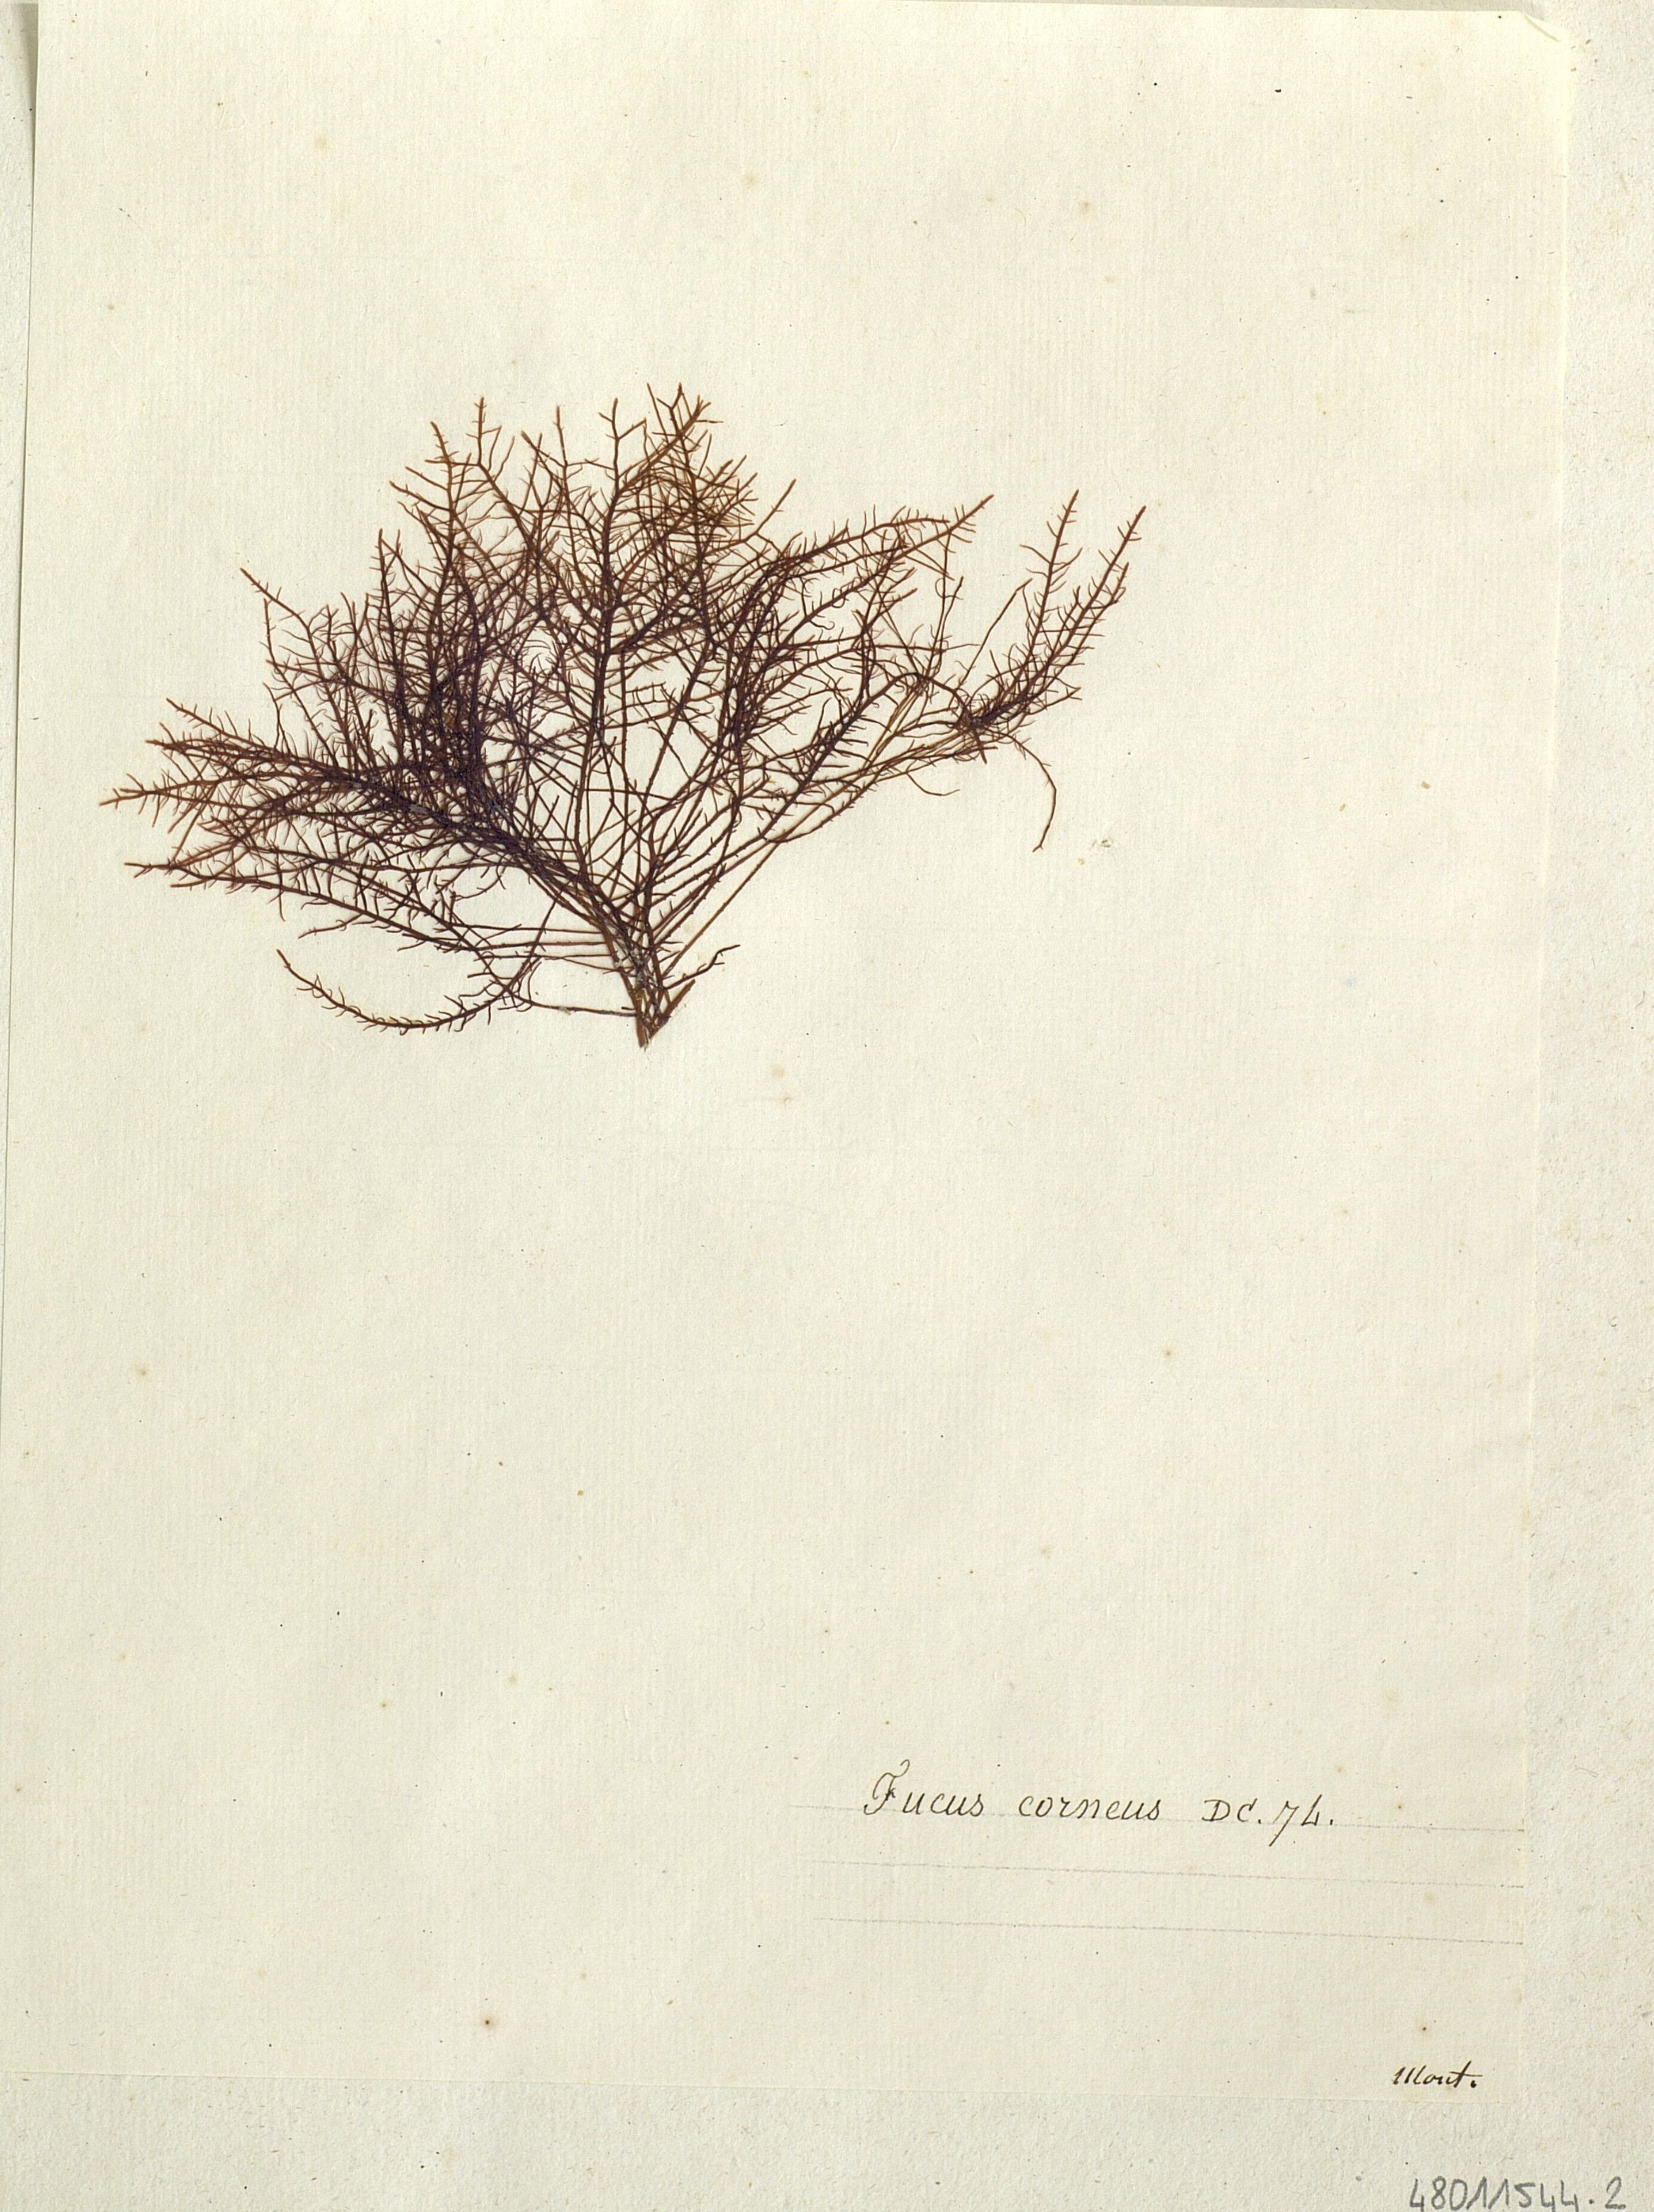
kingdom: Chromista
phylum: Ochrophyta
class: Phaeophyceae
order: Ectocarpales
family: Chordariaceae
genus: Chordaria
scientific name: Chordaria flagelliformis
